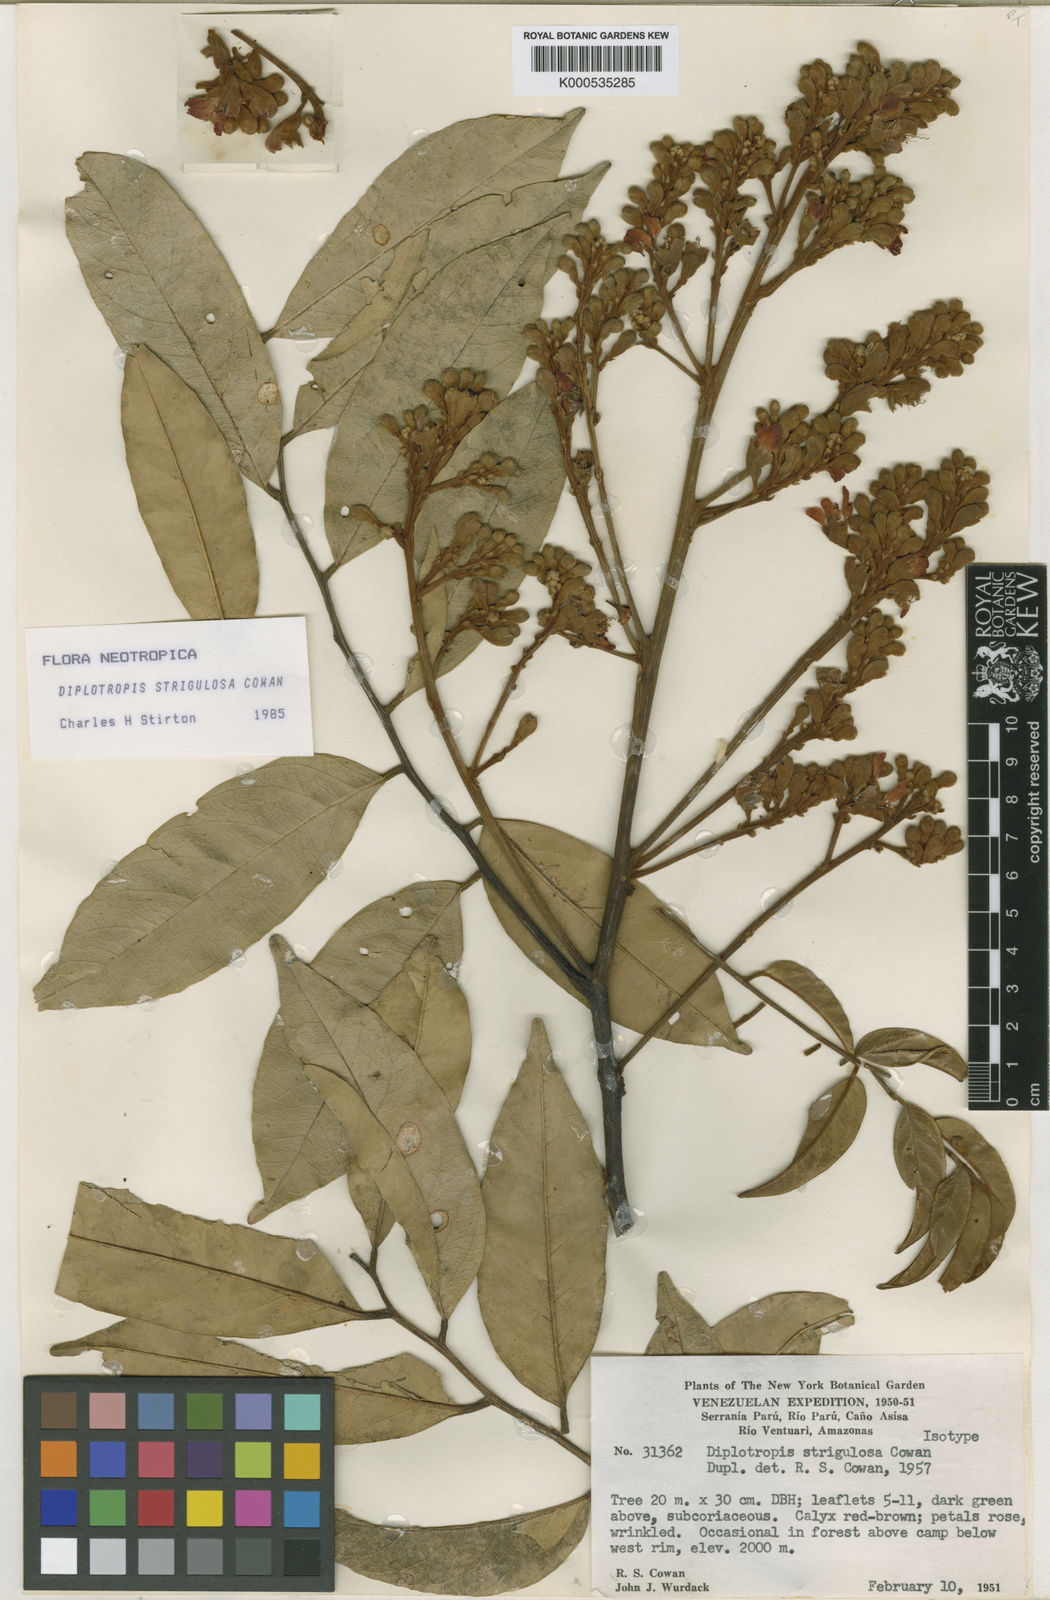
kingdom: Plantae
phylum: Tracheophyta
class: Magnoliopsida
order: Fabales
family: Fabaceae
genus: Diplotropis
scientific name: Diplotropis strigulosa
